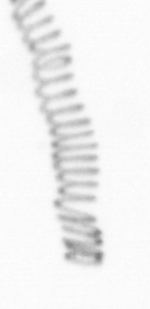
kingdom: Chromista
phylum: Ochrophyta
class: Bacillariophyceae
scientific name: Bacillariophyceae
